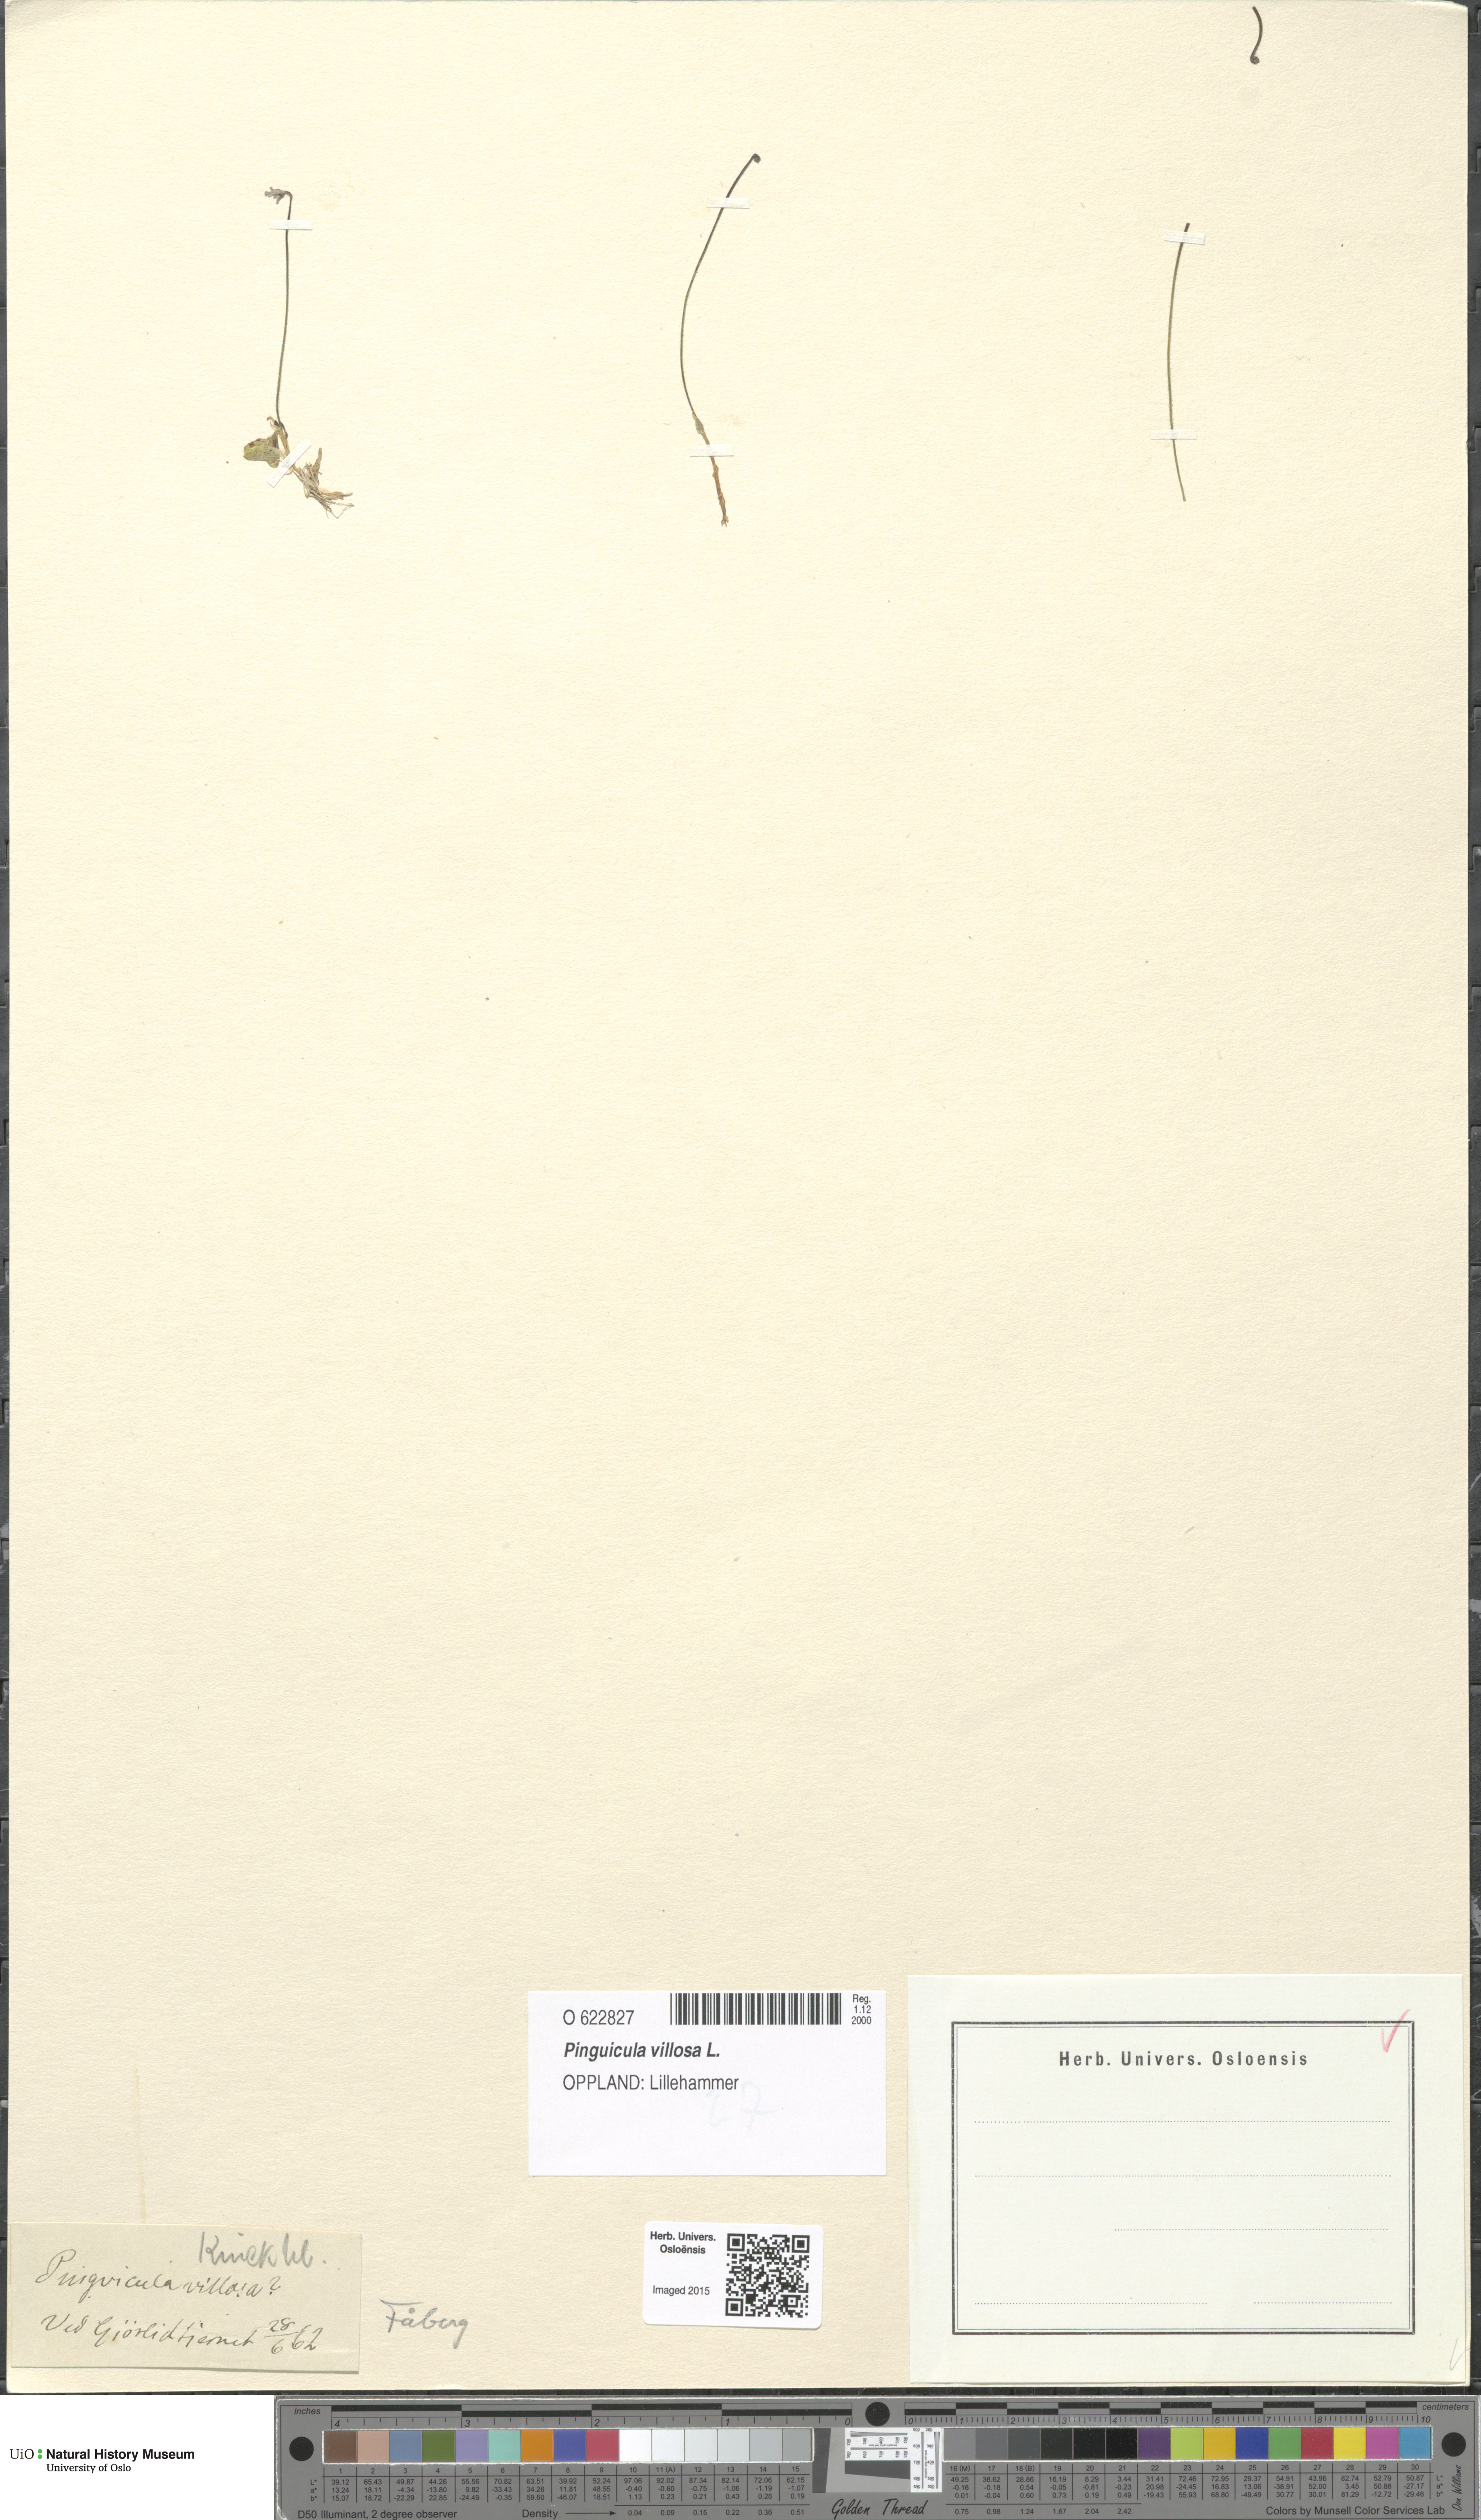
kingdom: Plantae
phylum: Tracheophyta
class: Magnoliopsida
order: Lamiales
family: Lentibulariaceae
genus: Pinguicula
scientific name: Pinguicula villosa
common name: Hairy butterwort
